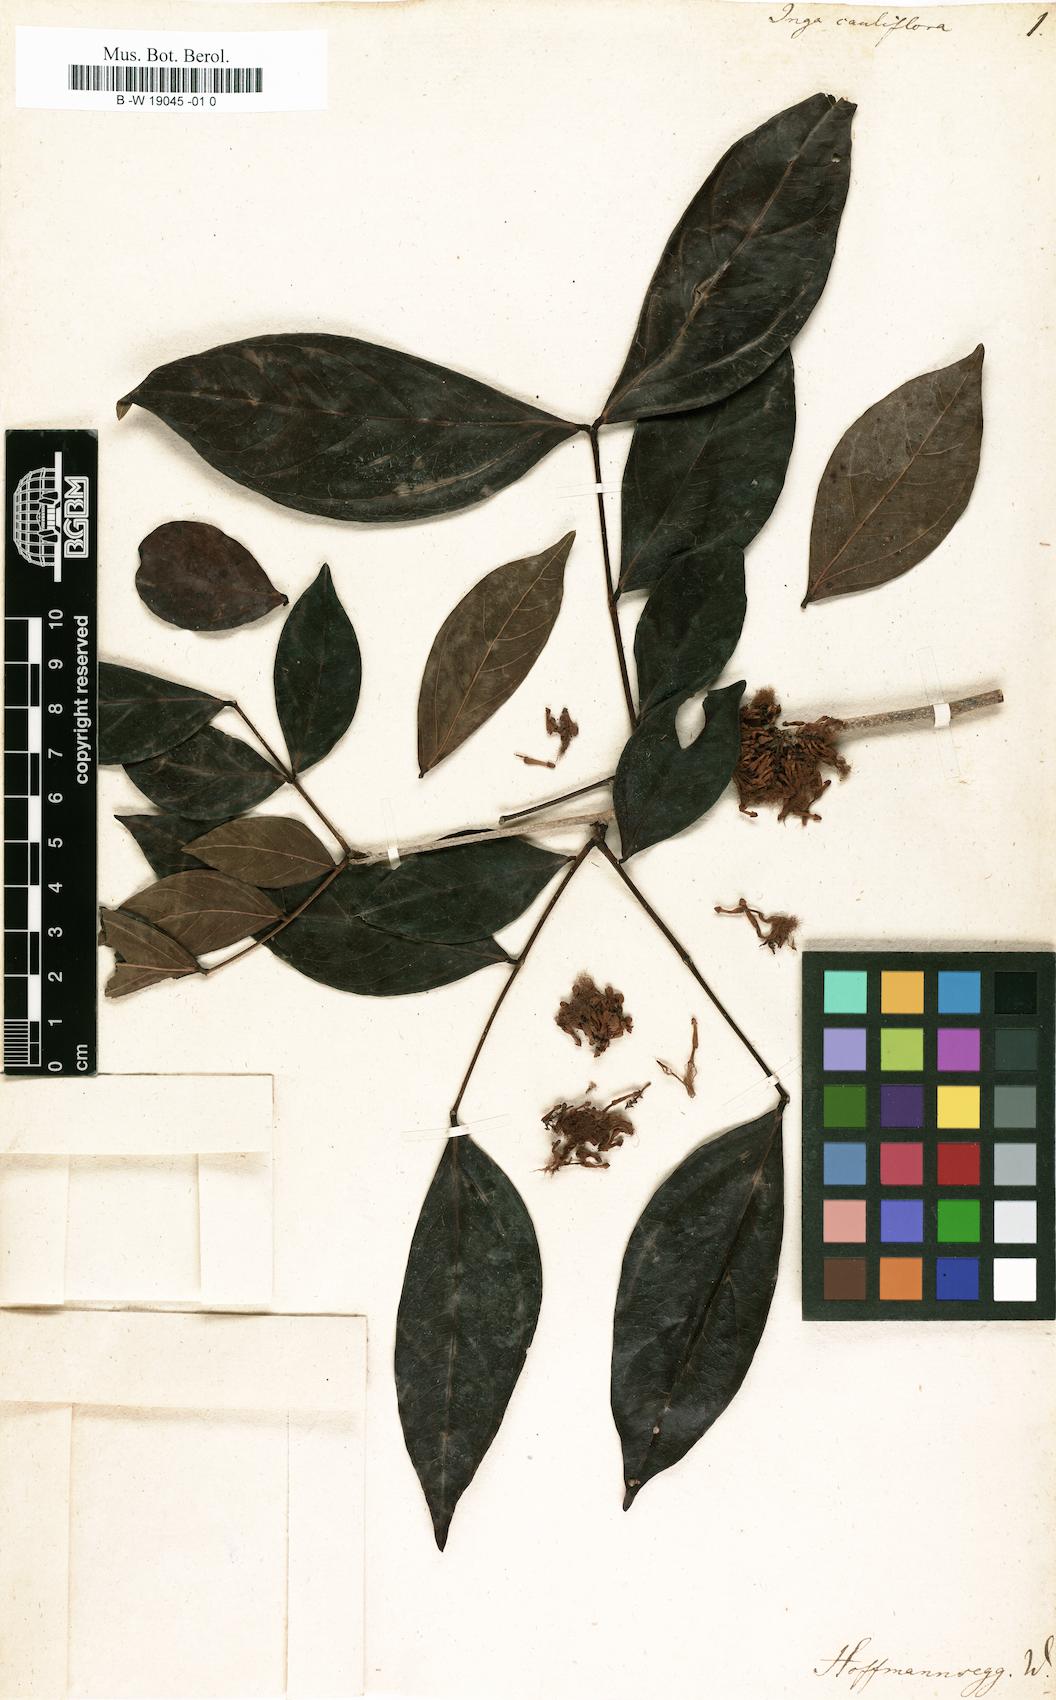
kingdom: Plantae
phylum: Tracheophyta
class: Magnoliopsida
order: Fabales
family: Fabaceae
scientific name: Fabaceae
